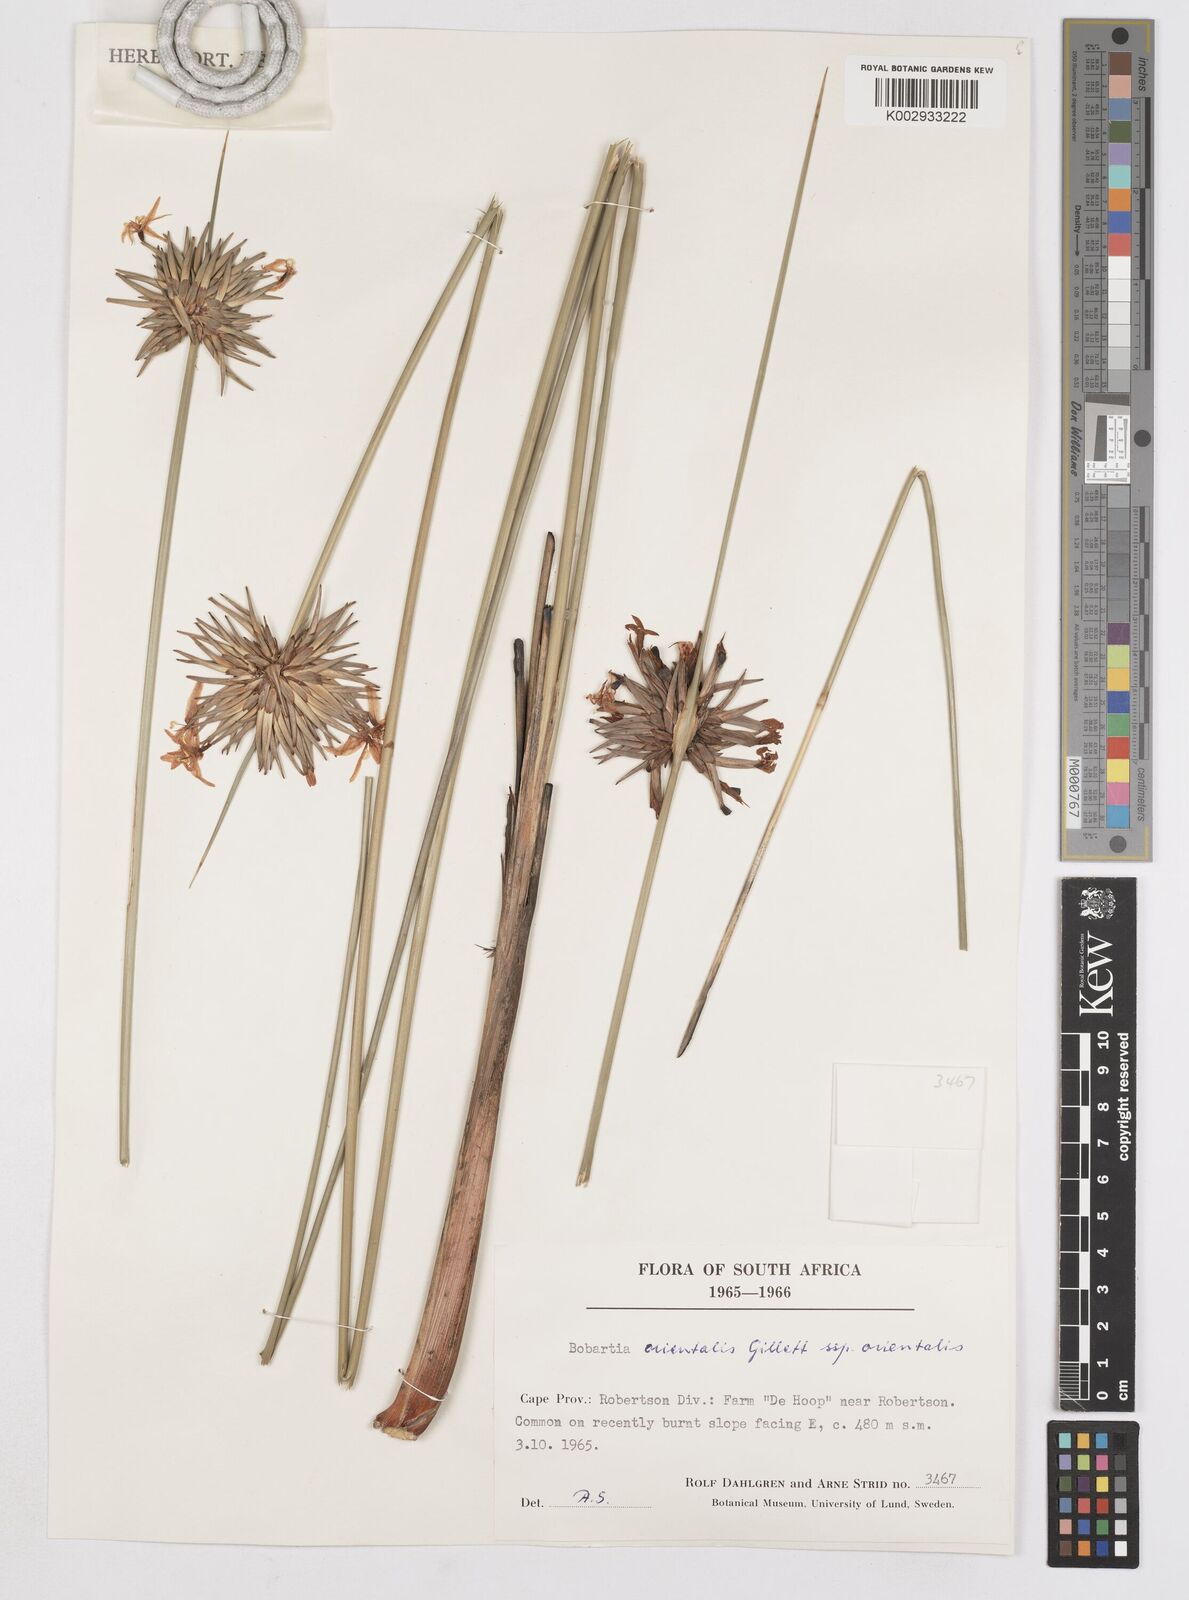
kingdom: Plantae
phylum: Tracheophyta
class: Liliopsida
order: Asparagales
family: Iridaceae
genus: Bobartia
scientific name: Bobartia orientalis
